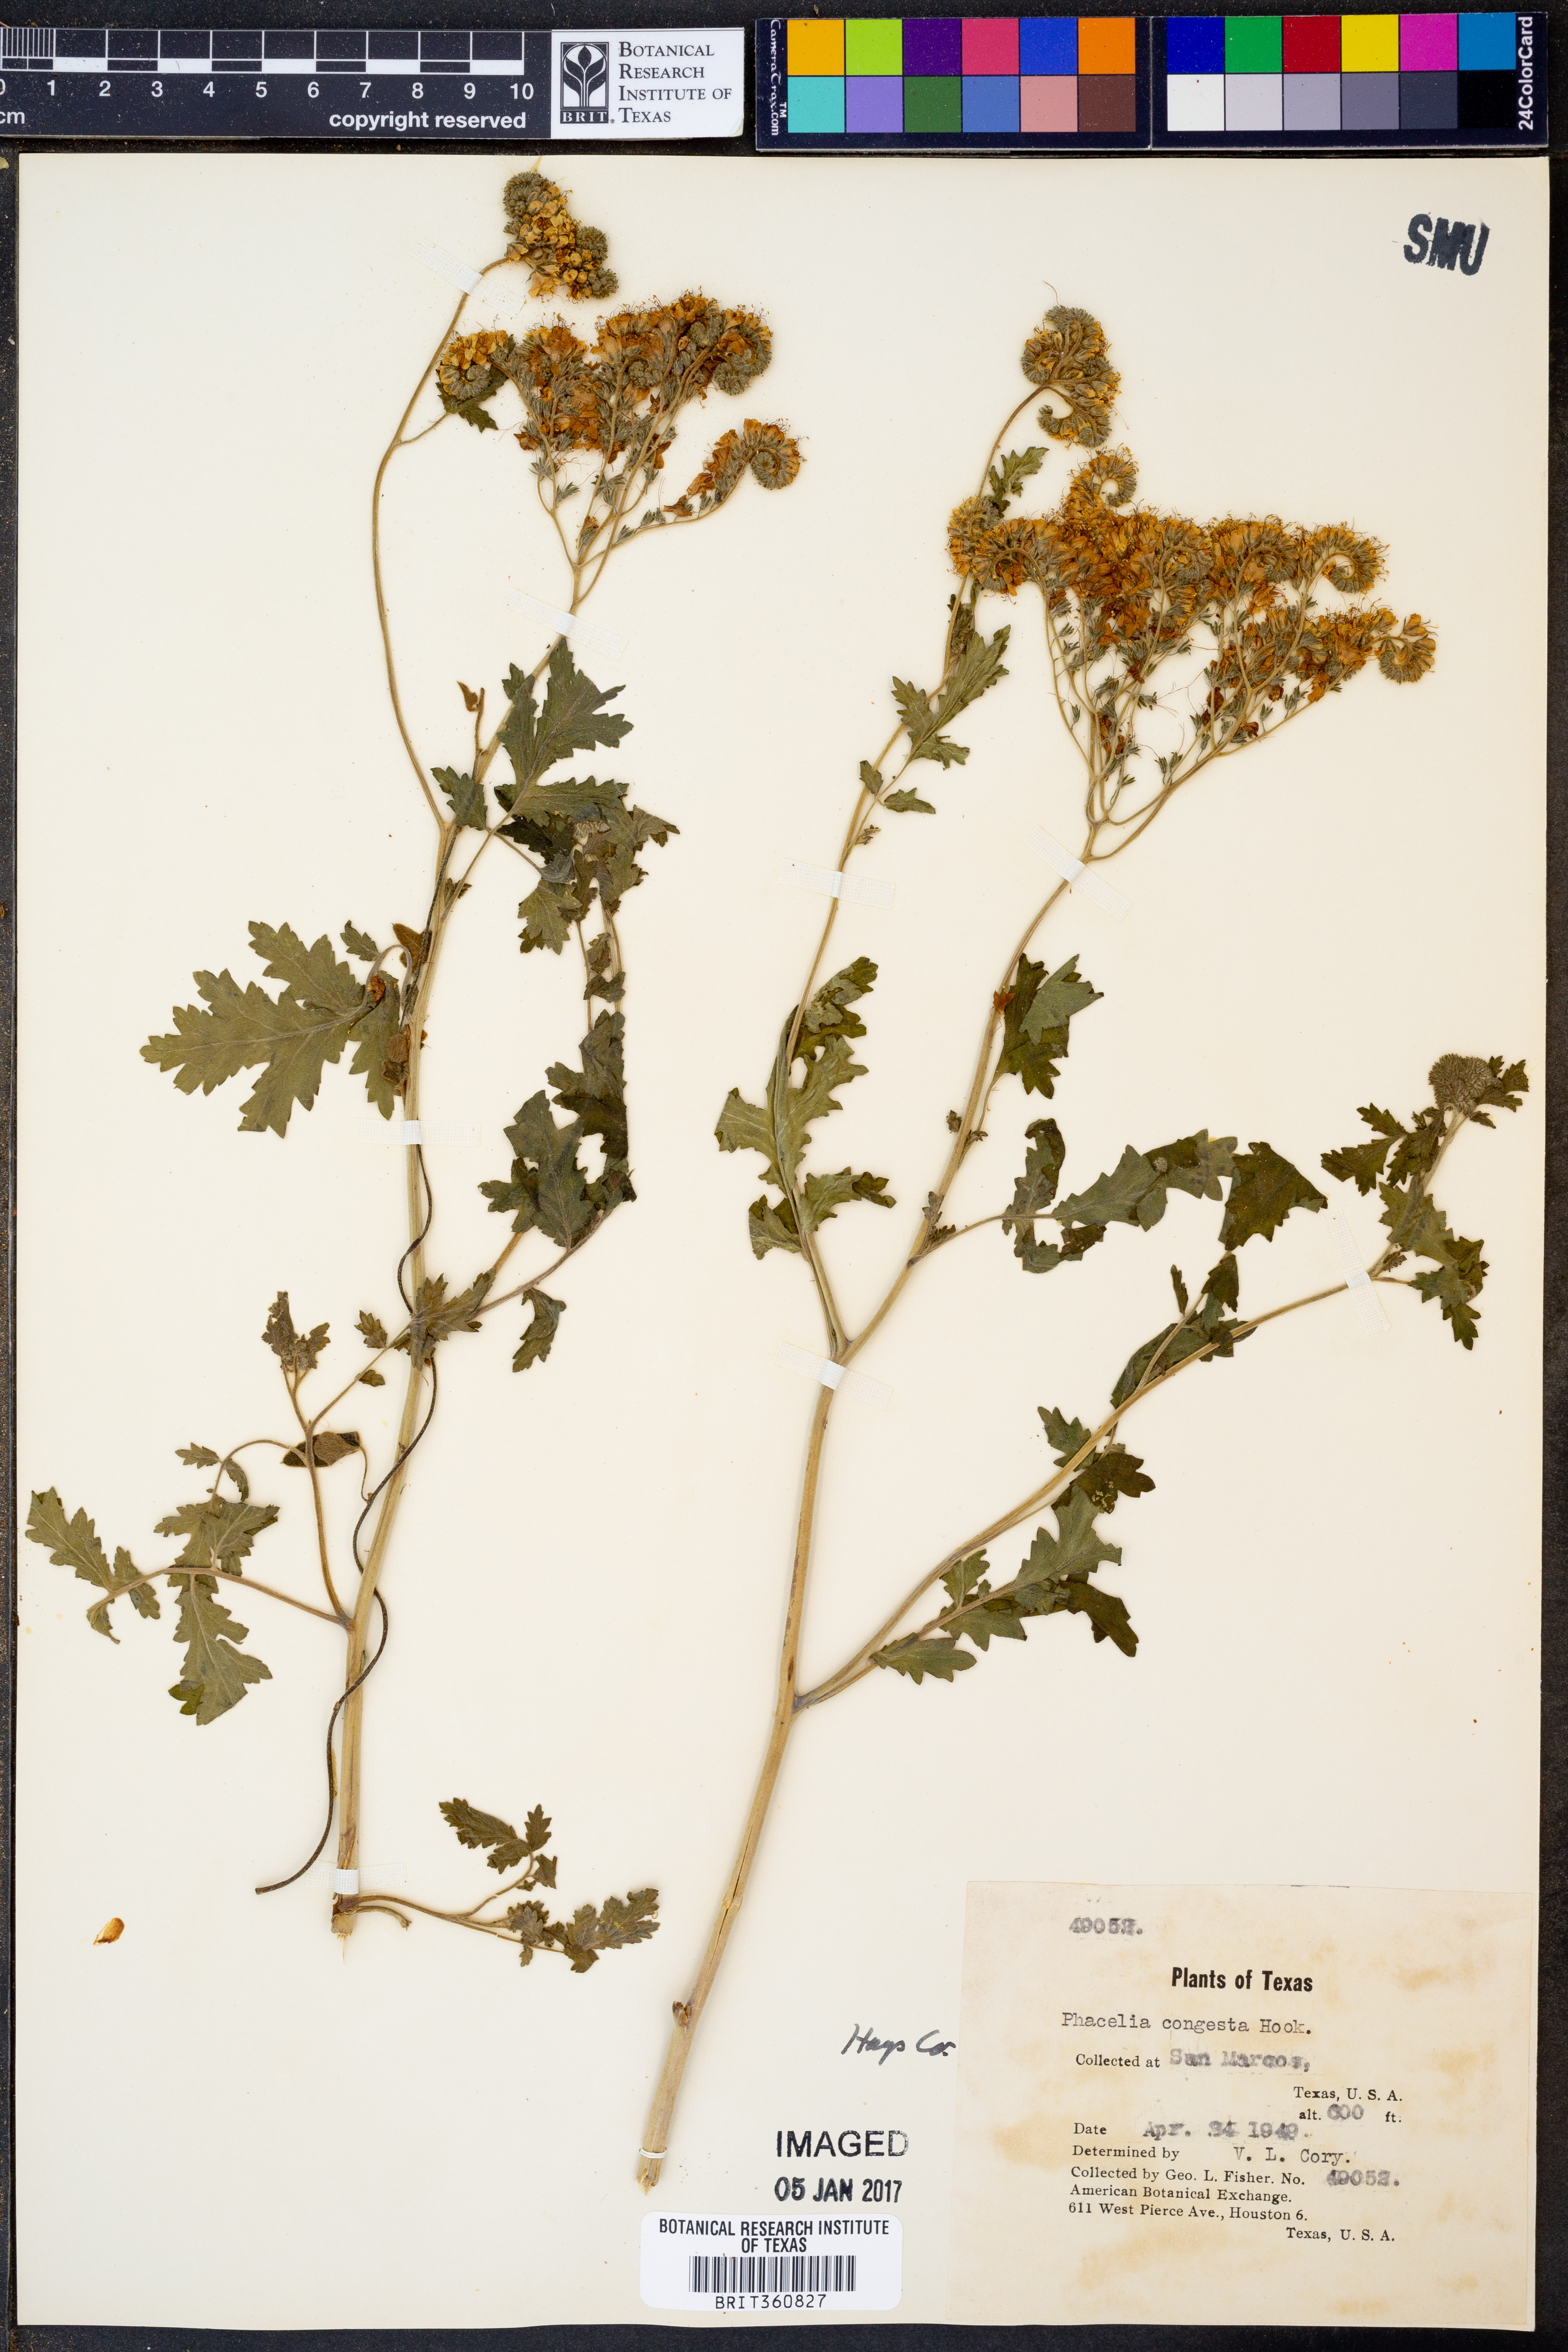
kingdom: Plantae
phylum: Tracheophyta
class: Magnoliopsida
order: Boraginales
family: Hydrophyllaceae
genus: Phacelia
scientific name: Phacelia congesta
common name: Blue curls
